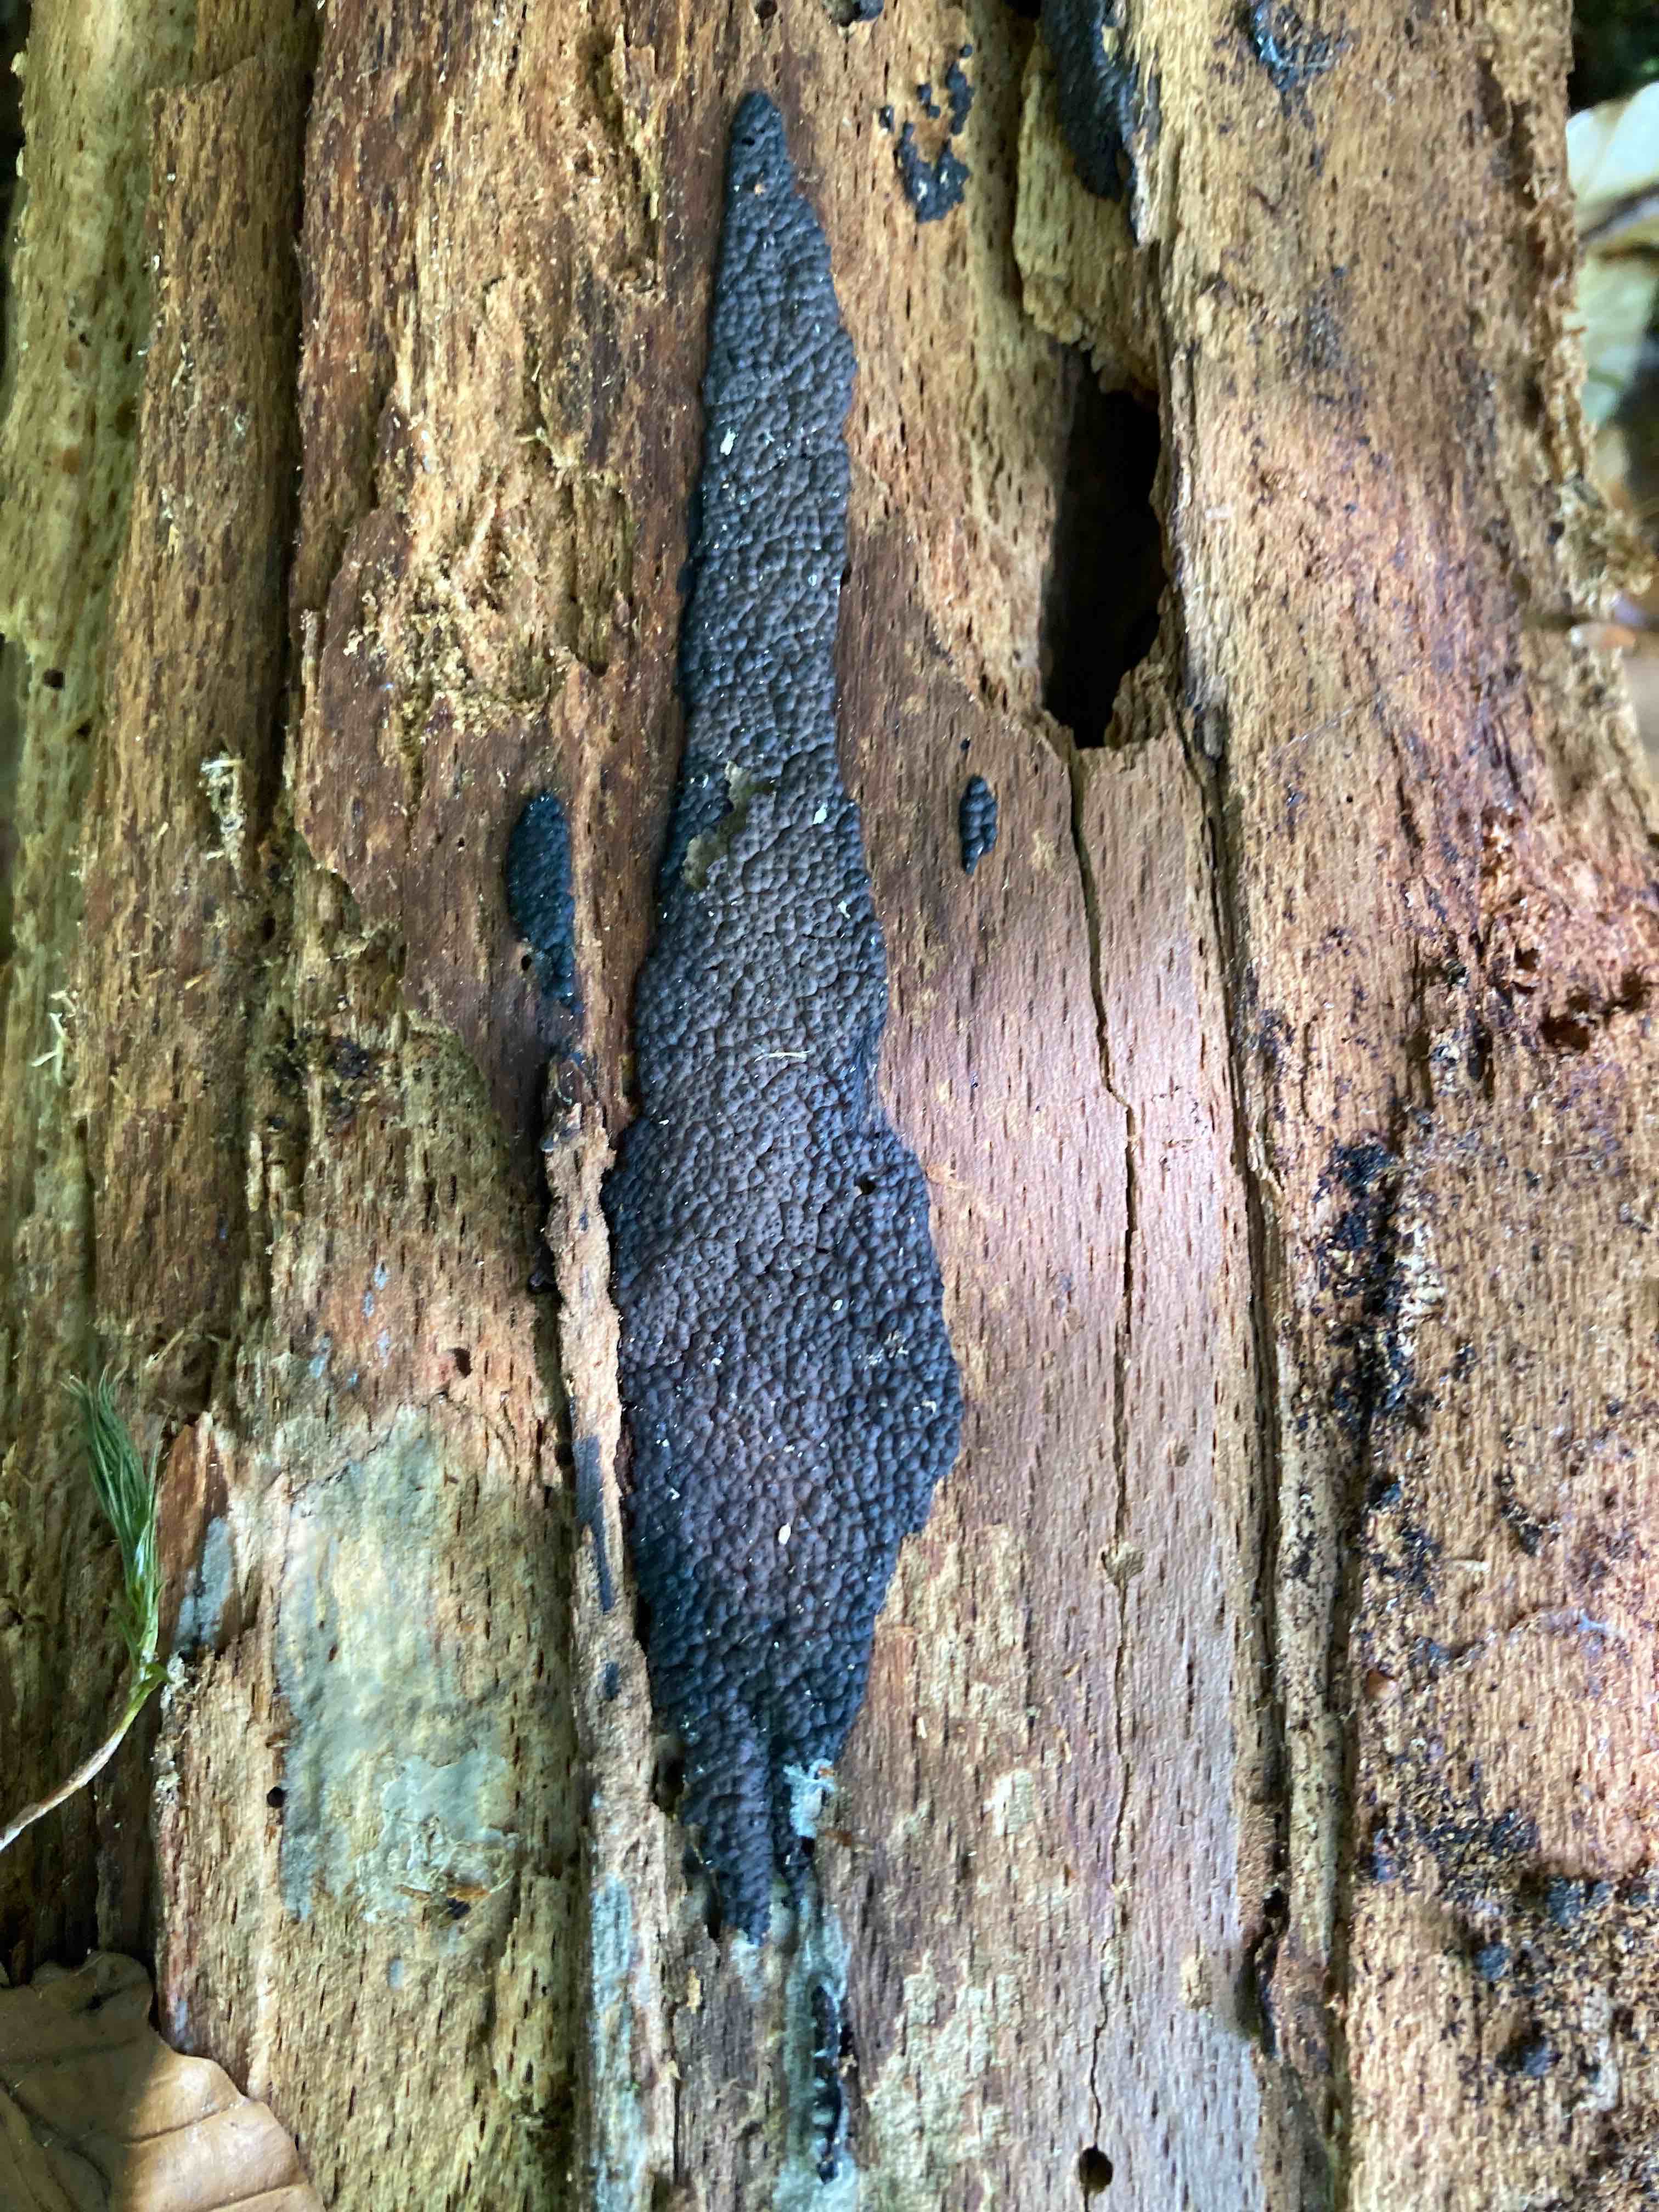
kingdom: Fungi
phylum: Ascomycota
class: Sordariomycetes
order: Xylariales
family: Xylariaceae
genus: Nemania
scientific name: Nemania atropurpurea
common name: purpursort kuldyne
